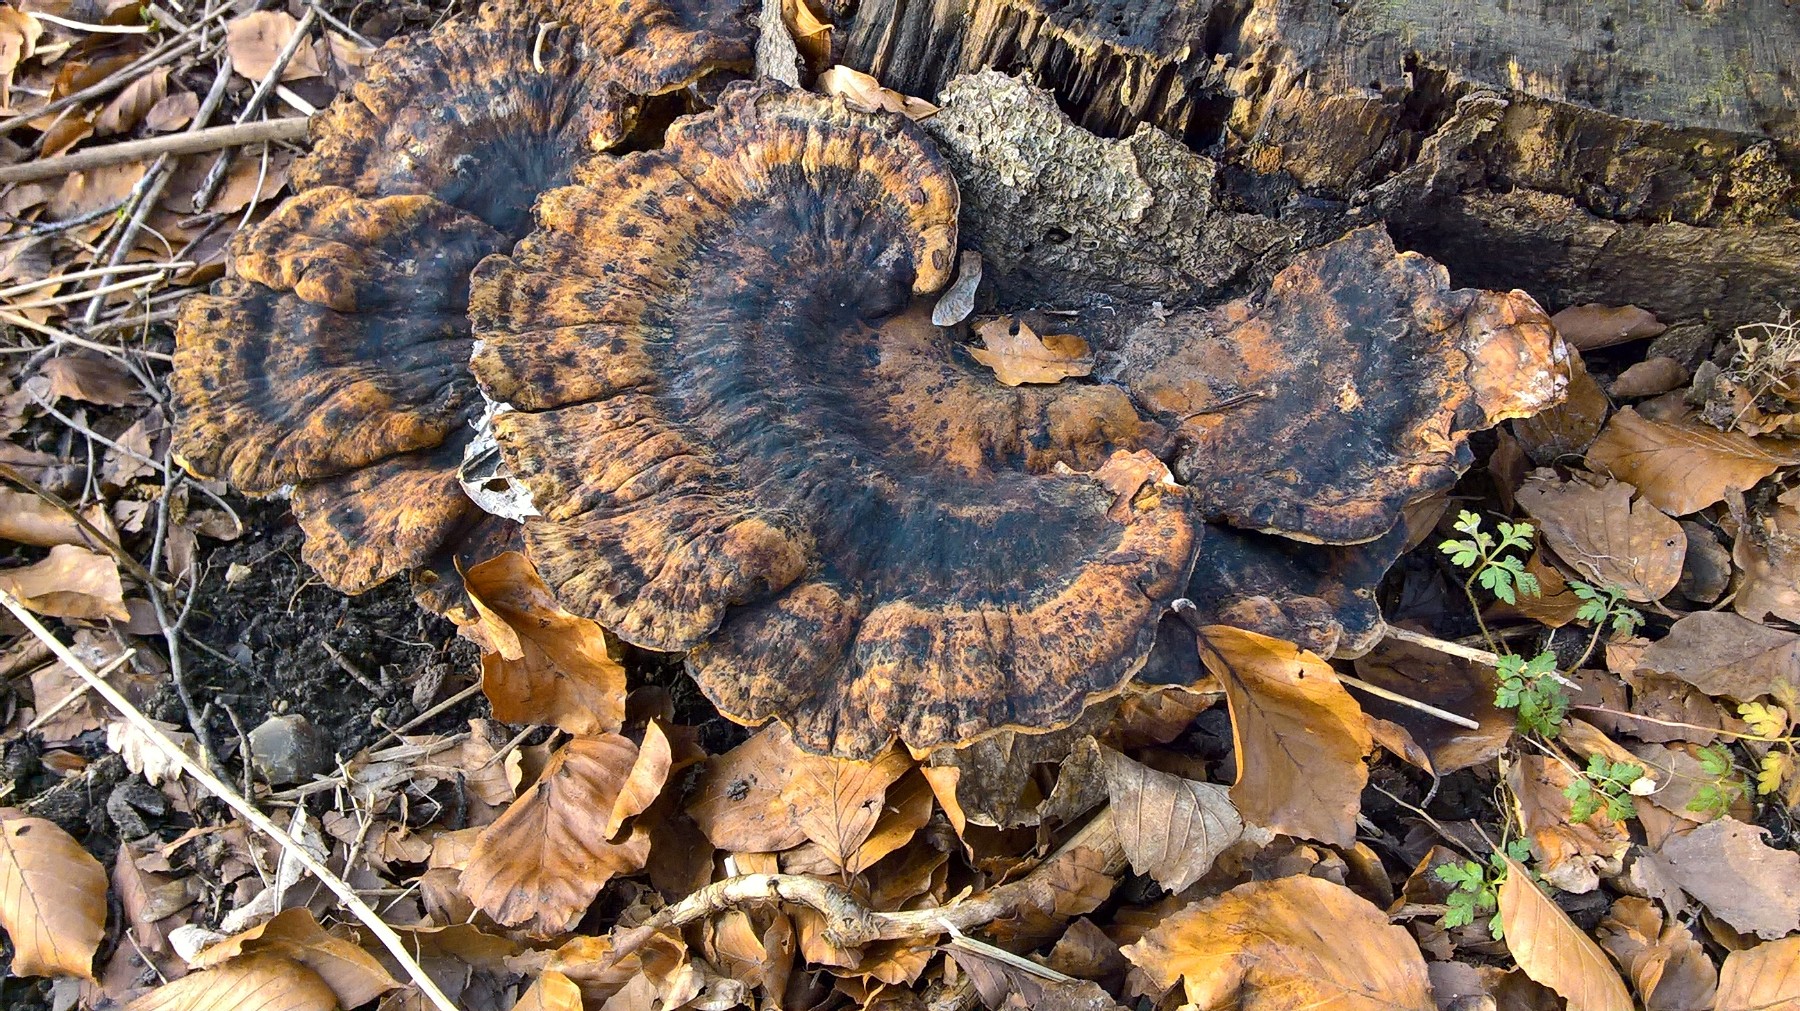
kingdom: Fungi
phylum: Basidiomycota
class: Agaricomycetes
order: Polyporales
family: Ischnodermataceae
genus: Ischnoderma
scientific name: Ischnoderma resinosum
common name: løv-tjæreporesvamp
